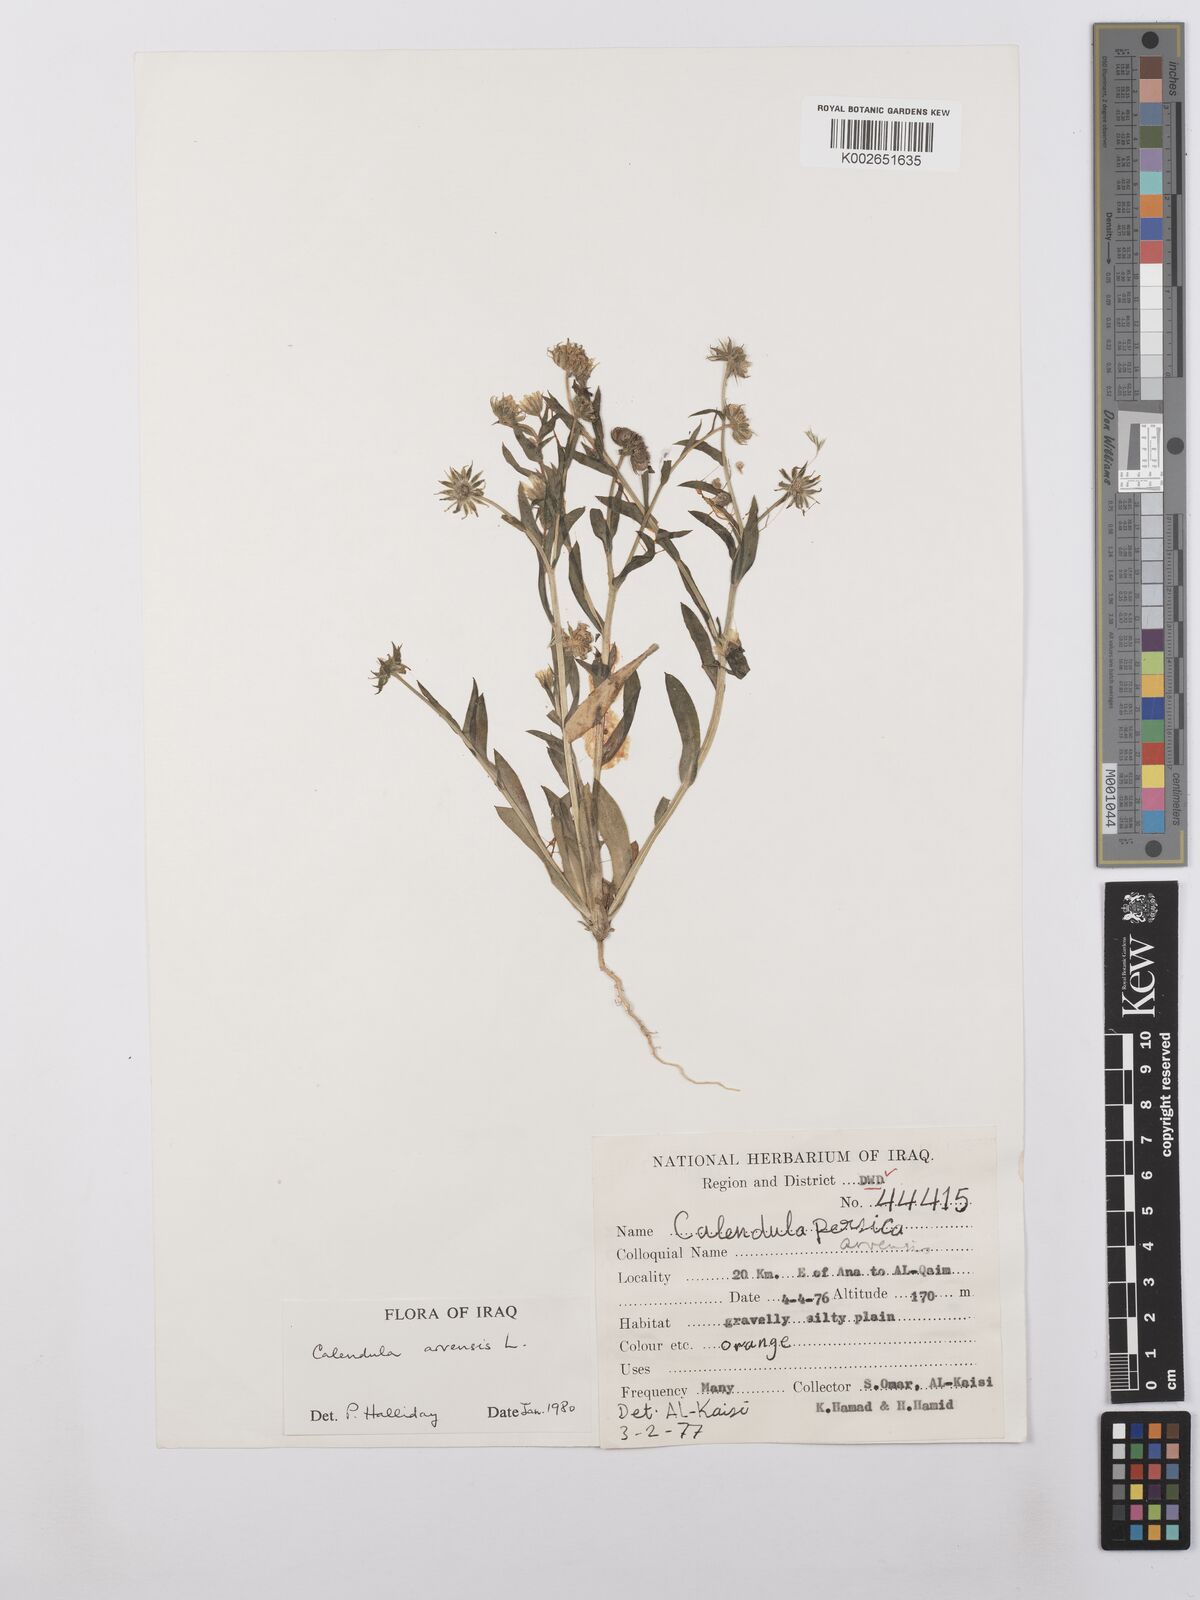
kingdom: Plantae
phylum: Tracheophyta
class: Magnoliopsida
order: Asterales
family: Asteraceae
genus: Calendula
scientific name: Calendula arvensis
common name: Field marigold
